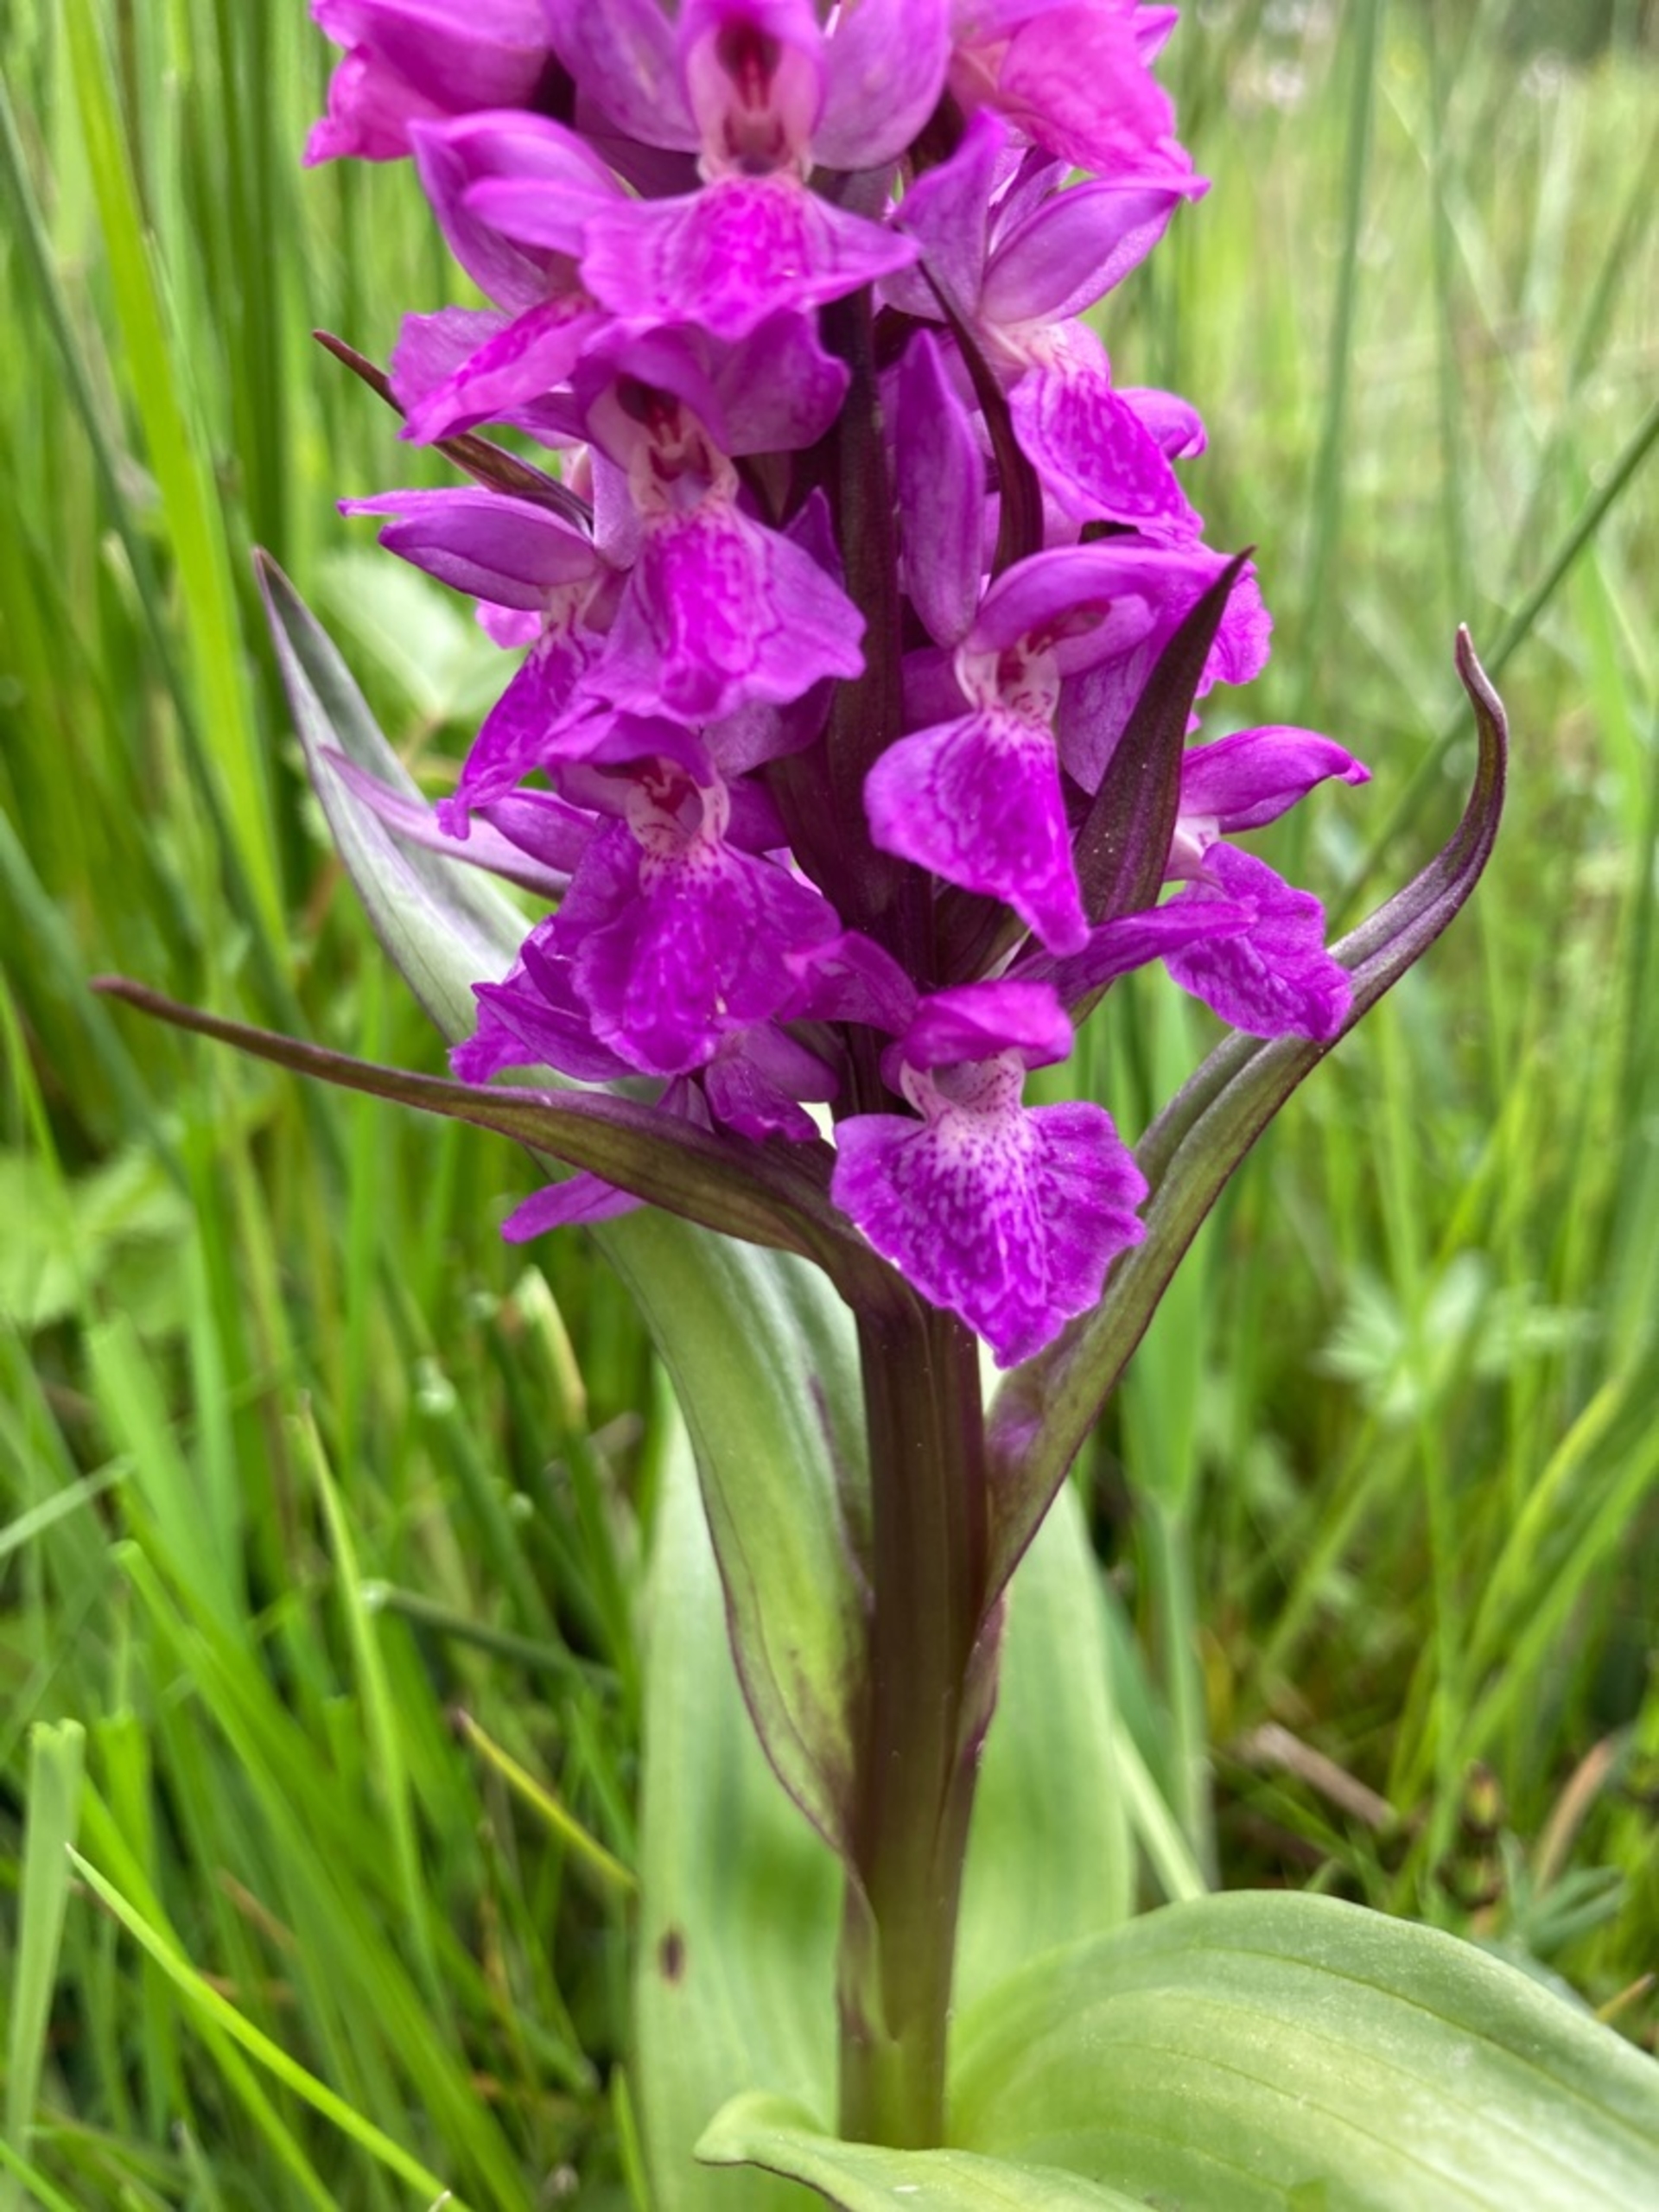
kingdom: Plantae
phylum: Tracheophyta
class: Liliopsida
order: Asparagales
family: Orchidaceae
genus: Dactylorhiza
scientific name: Dactylorhiza majalis
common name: Maj-gøgeurt
